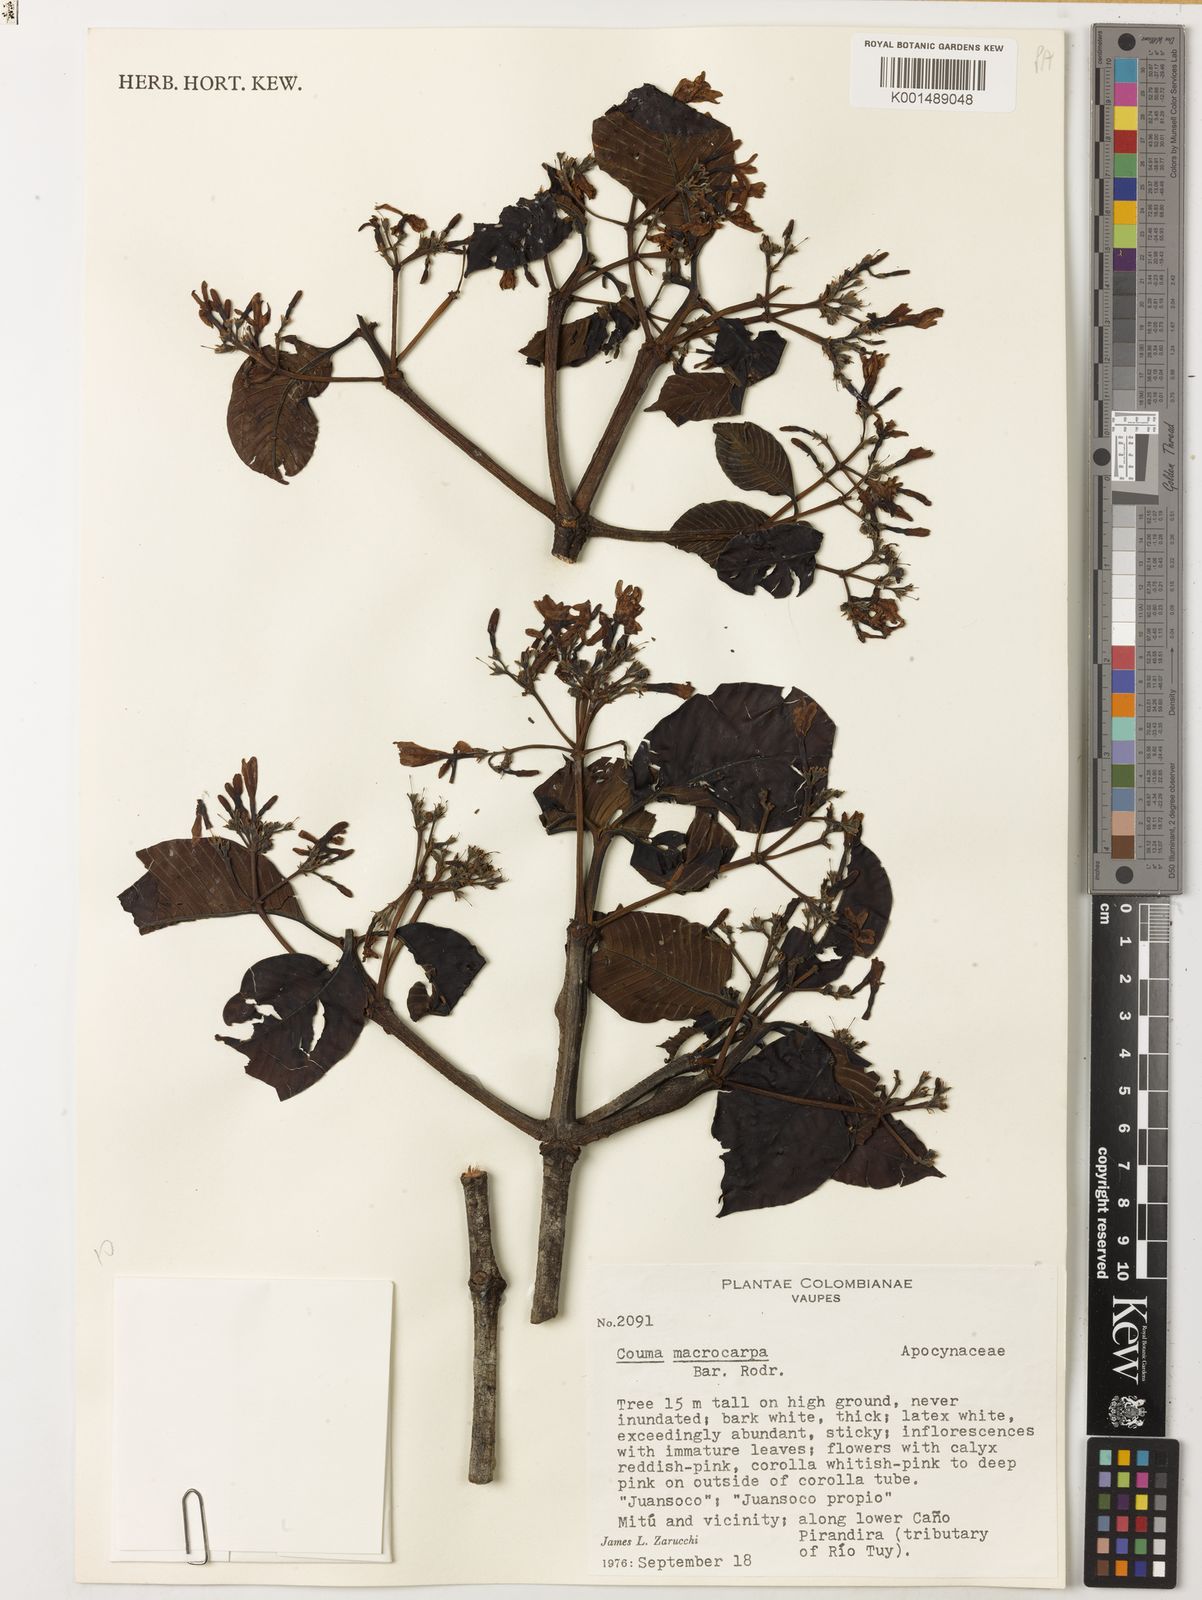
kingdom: Plantae
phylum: Tracheophyta
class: Magnoliopsida
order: Gentianales
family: Apocynaceae
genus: Couma
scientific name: Couma macrocarpa
